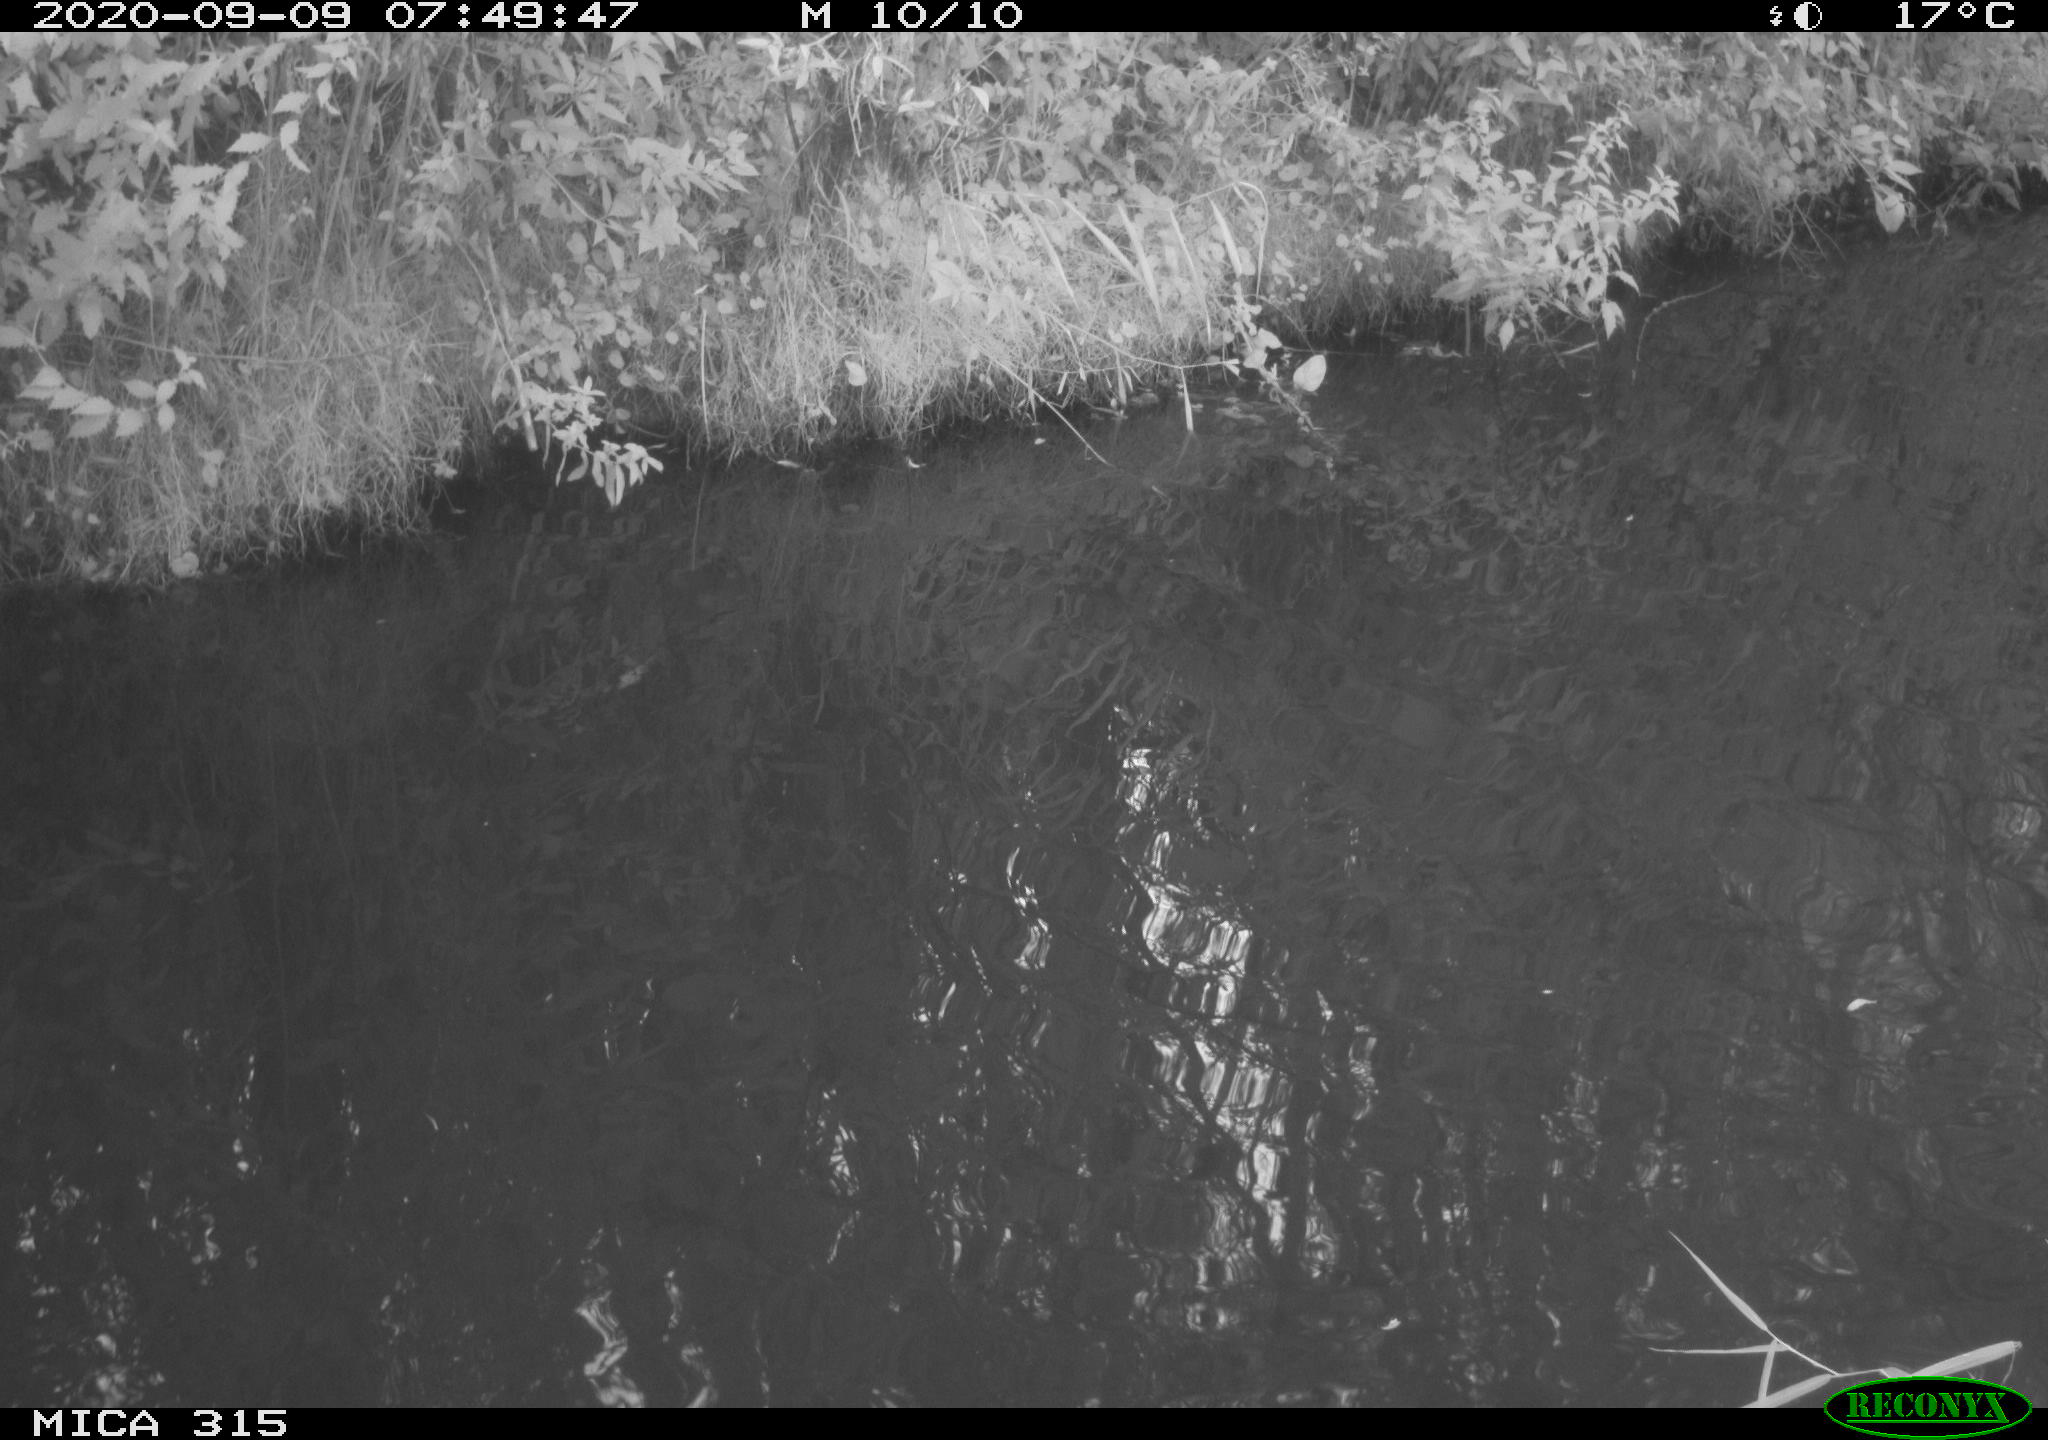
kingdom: Animalia
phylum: Chordata
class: Aves
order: Gruiformes
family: Rallidae
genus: Fulica
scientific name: Fulica atra
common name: Eurasian coot
